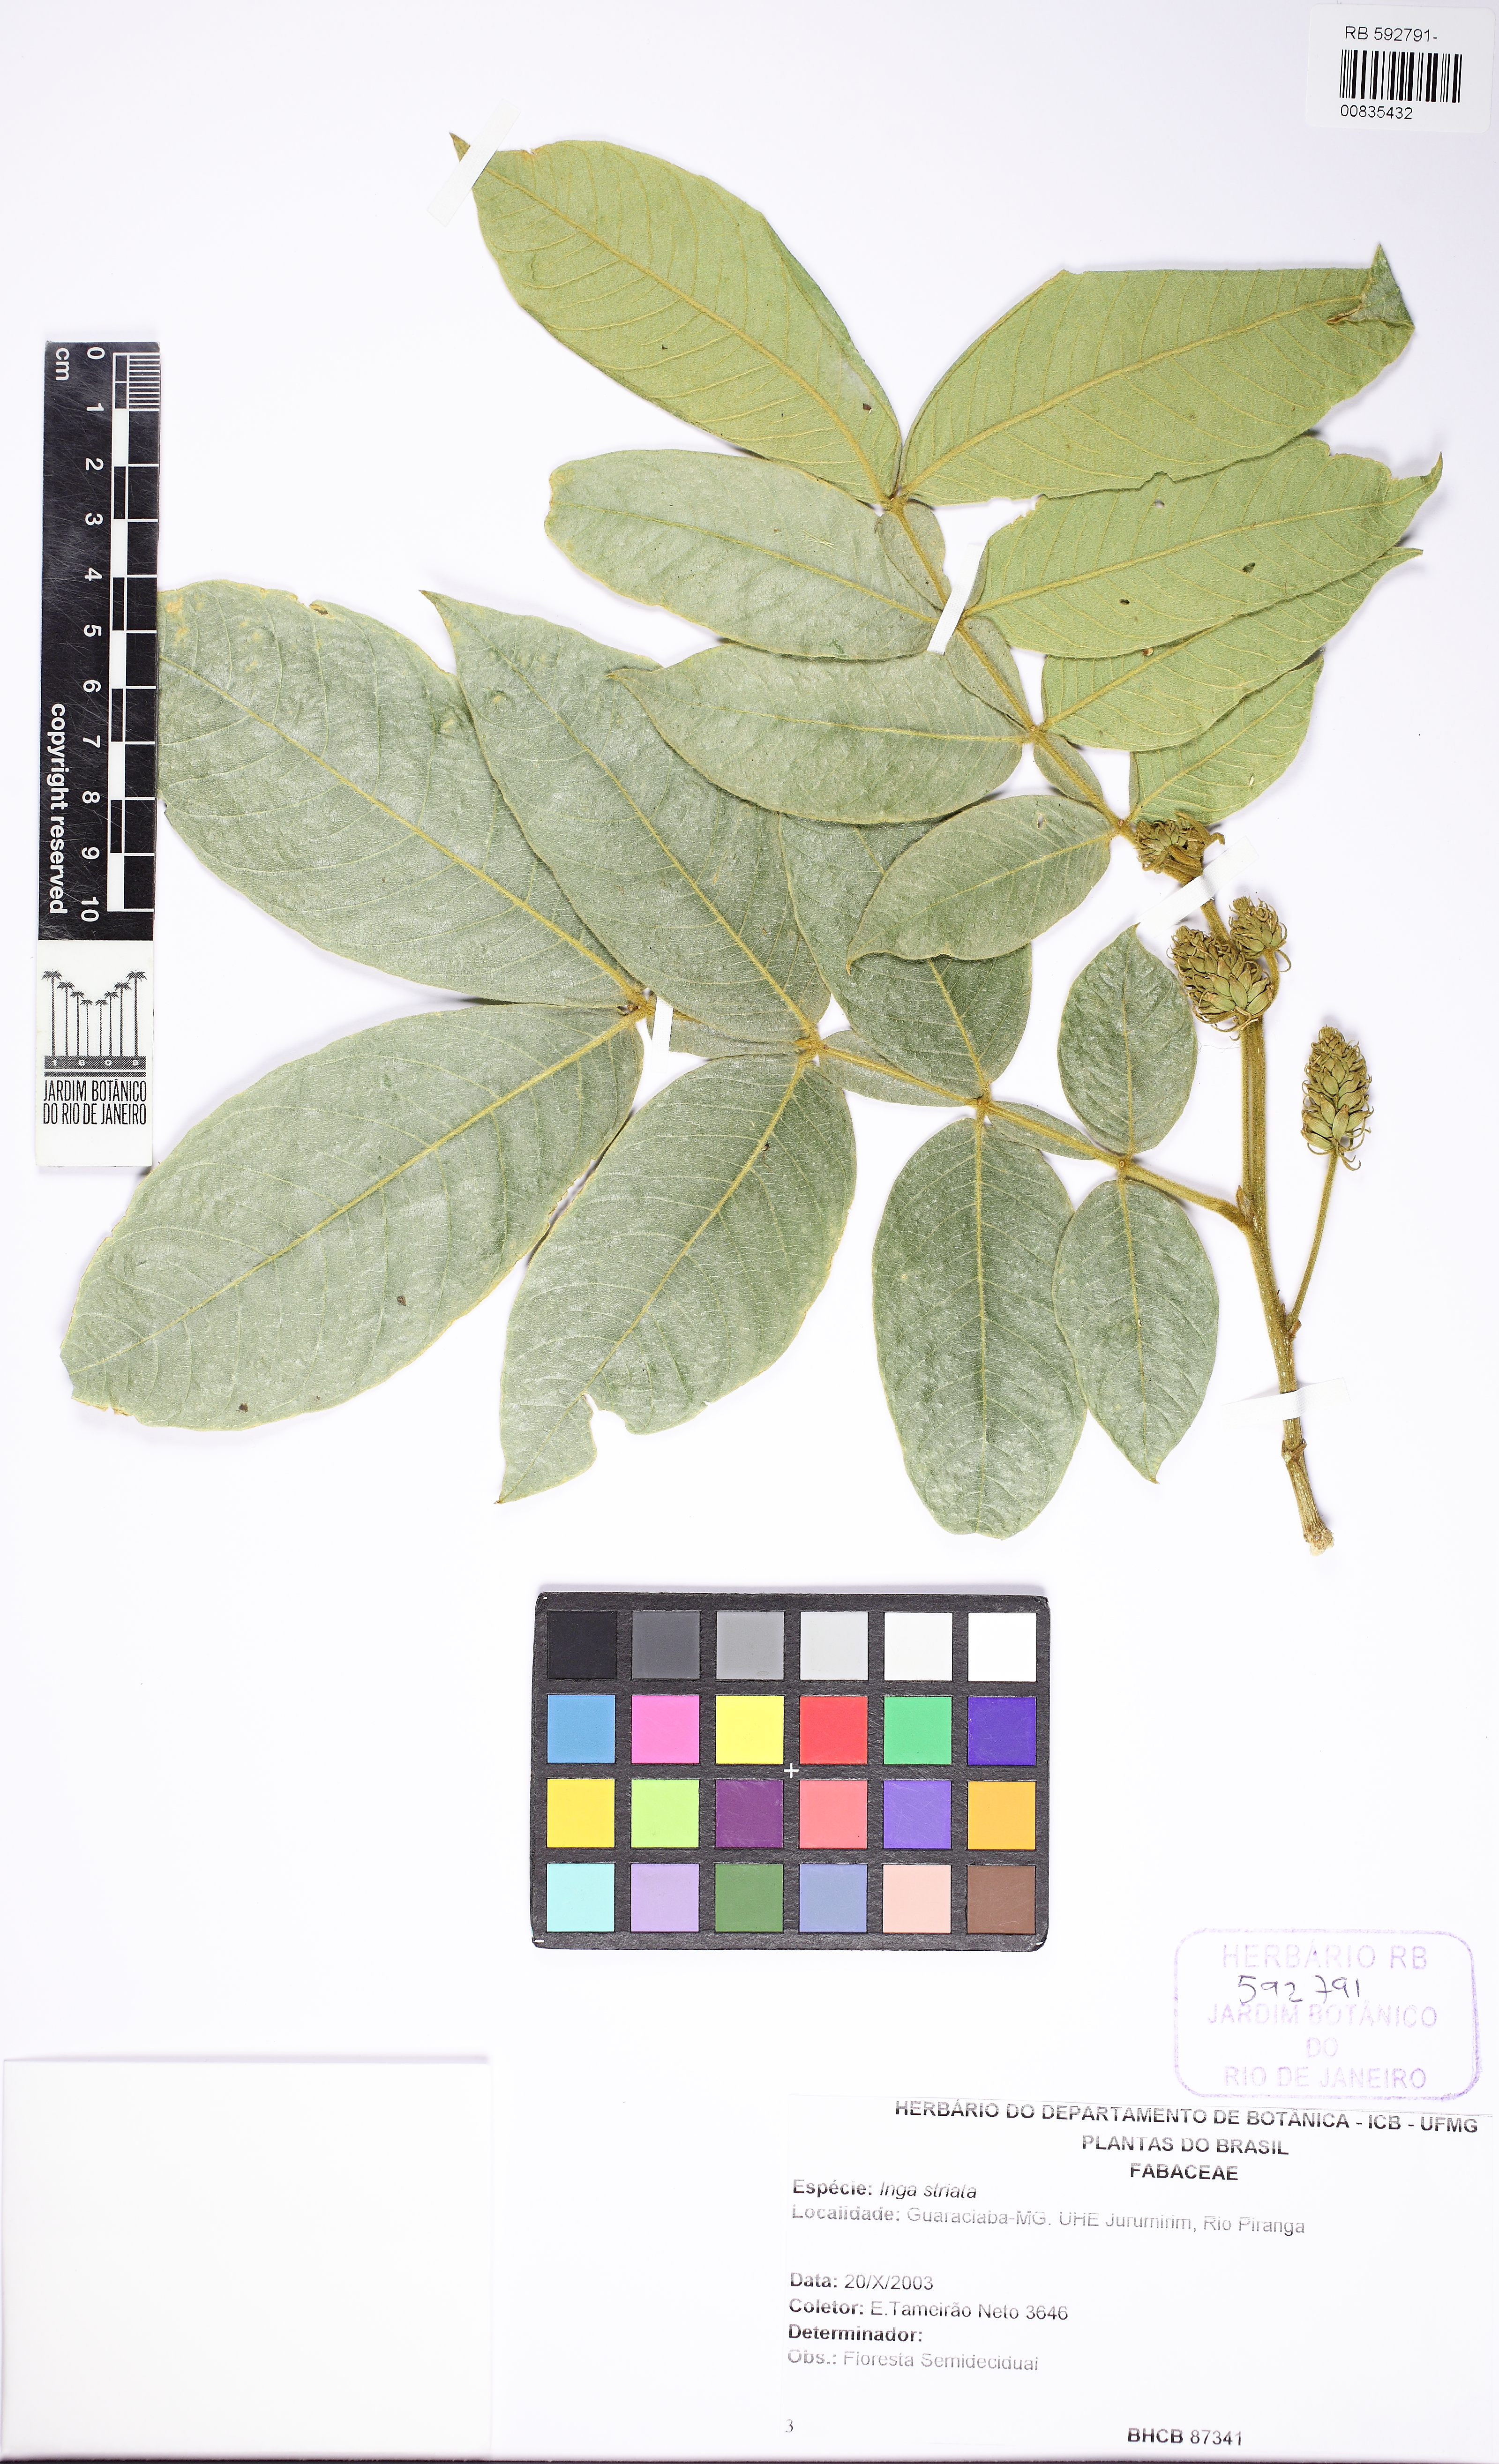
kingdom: Plantae
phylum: Tracheophyta
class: Magnoliopsida
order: Fabales
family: Fabaceae
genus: Inga
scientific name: Inga striata
